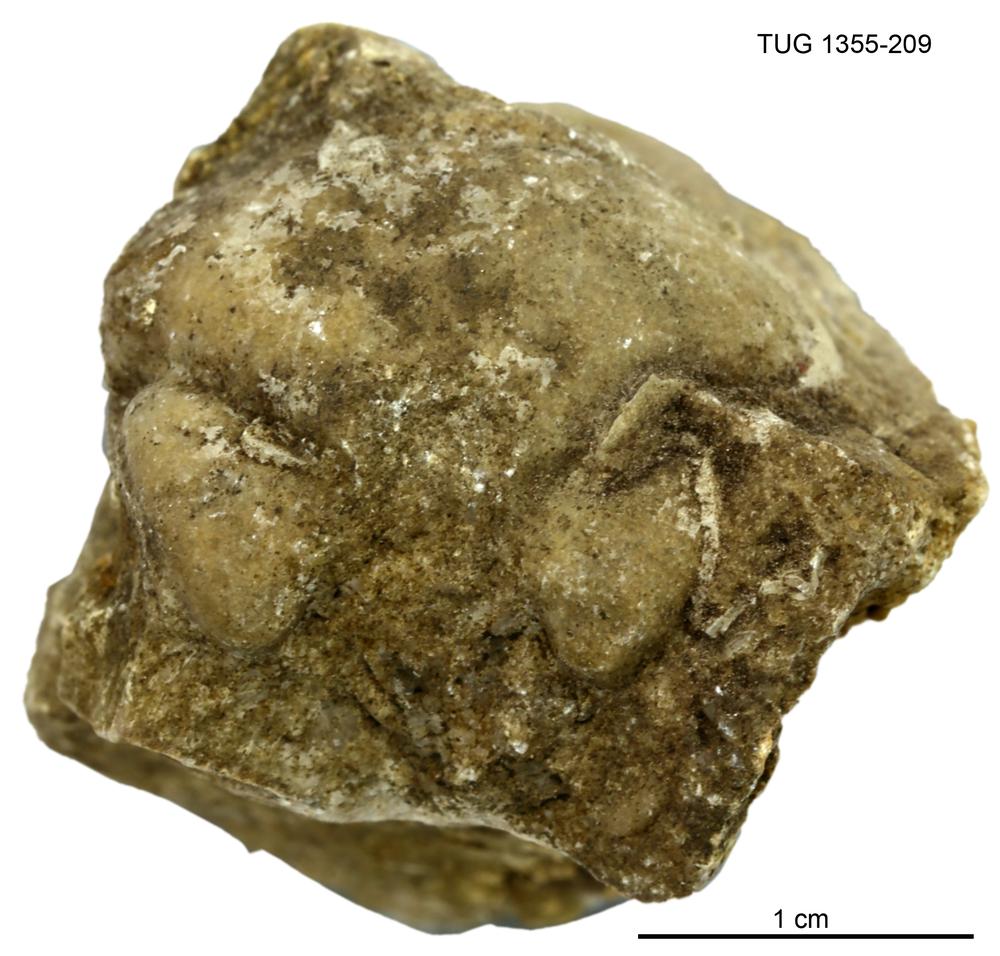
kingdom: Animalia
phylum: Arthropoda
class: Trilobita
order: Phacopida
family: Pterygometopidae
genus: Chasmops
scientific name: Chasmops macrourus
